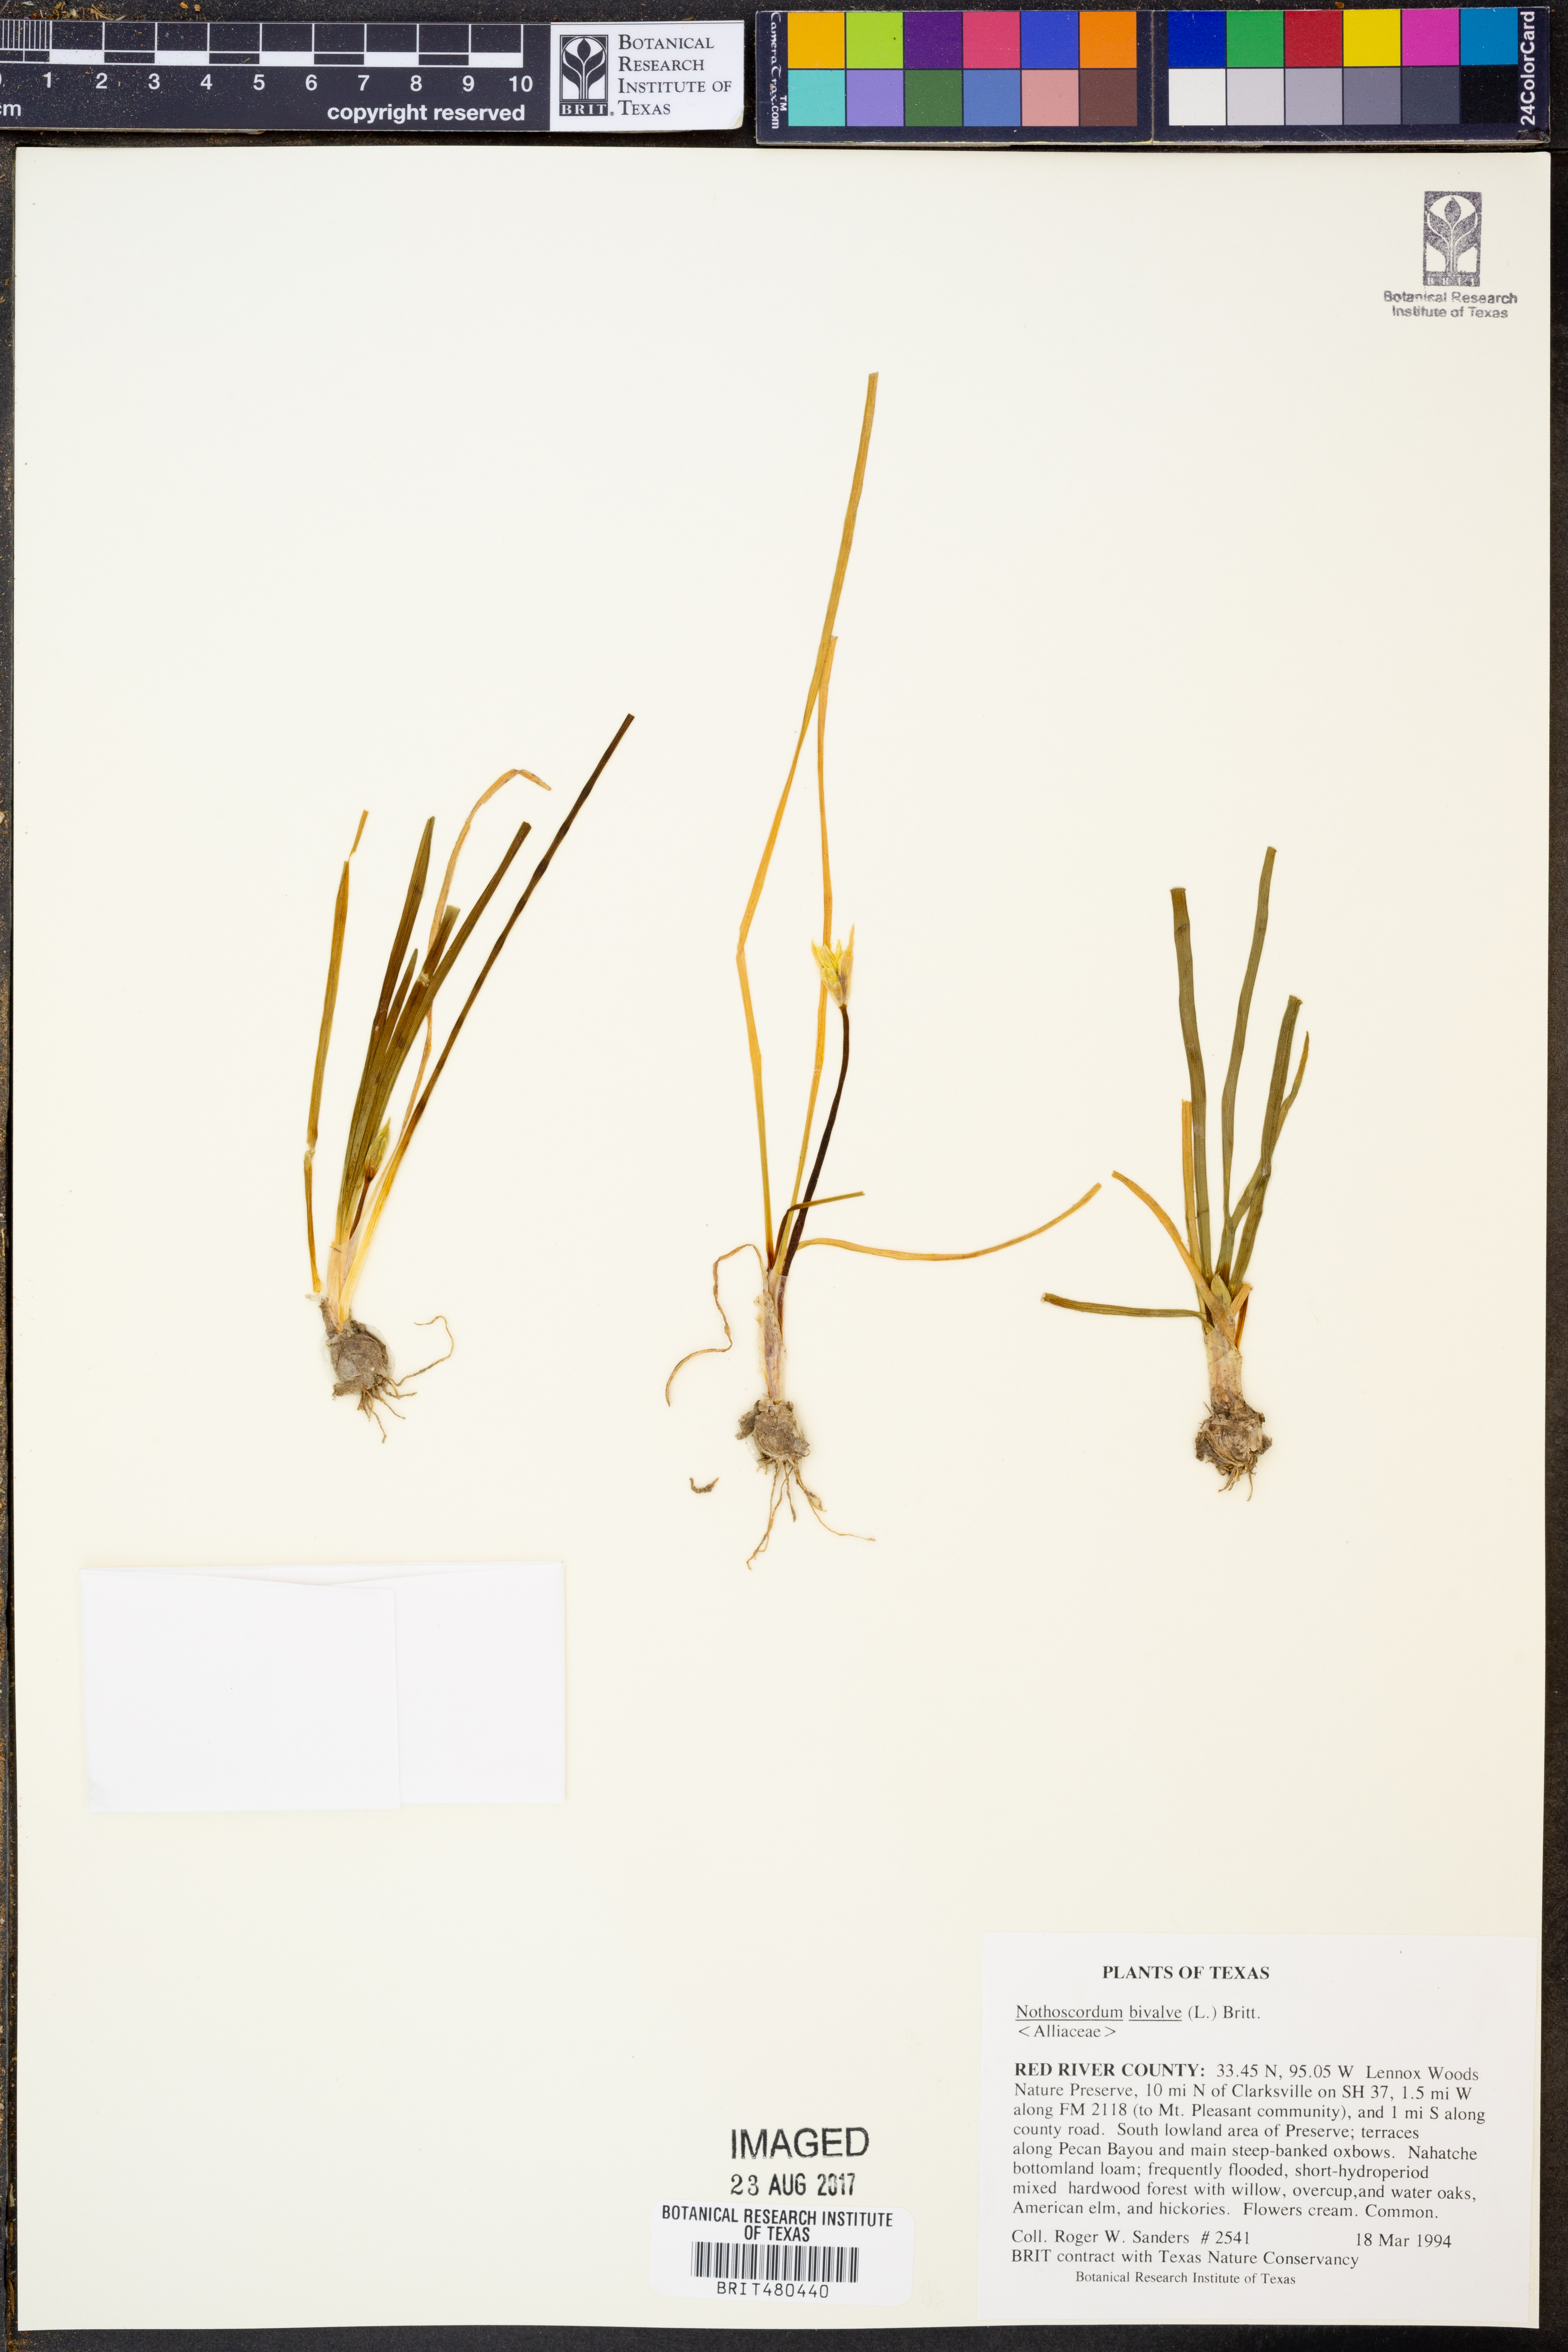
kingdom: Plantae
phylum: Tracheophyta
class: Liliopsida
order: Asparagales
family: Amaryllidaceae
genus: Nothoscordum
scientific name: Nothoscordum bivalve
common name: Crow-poison
